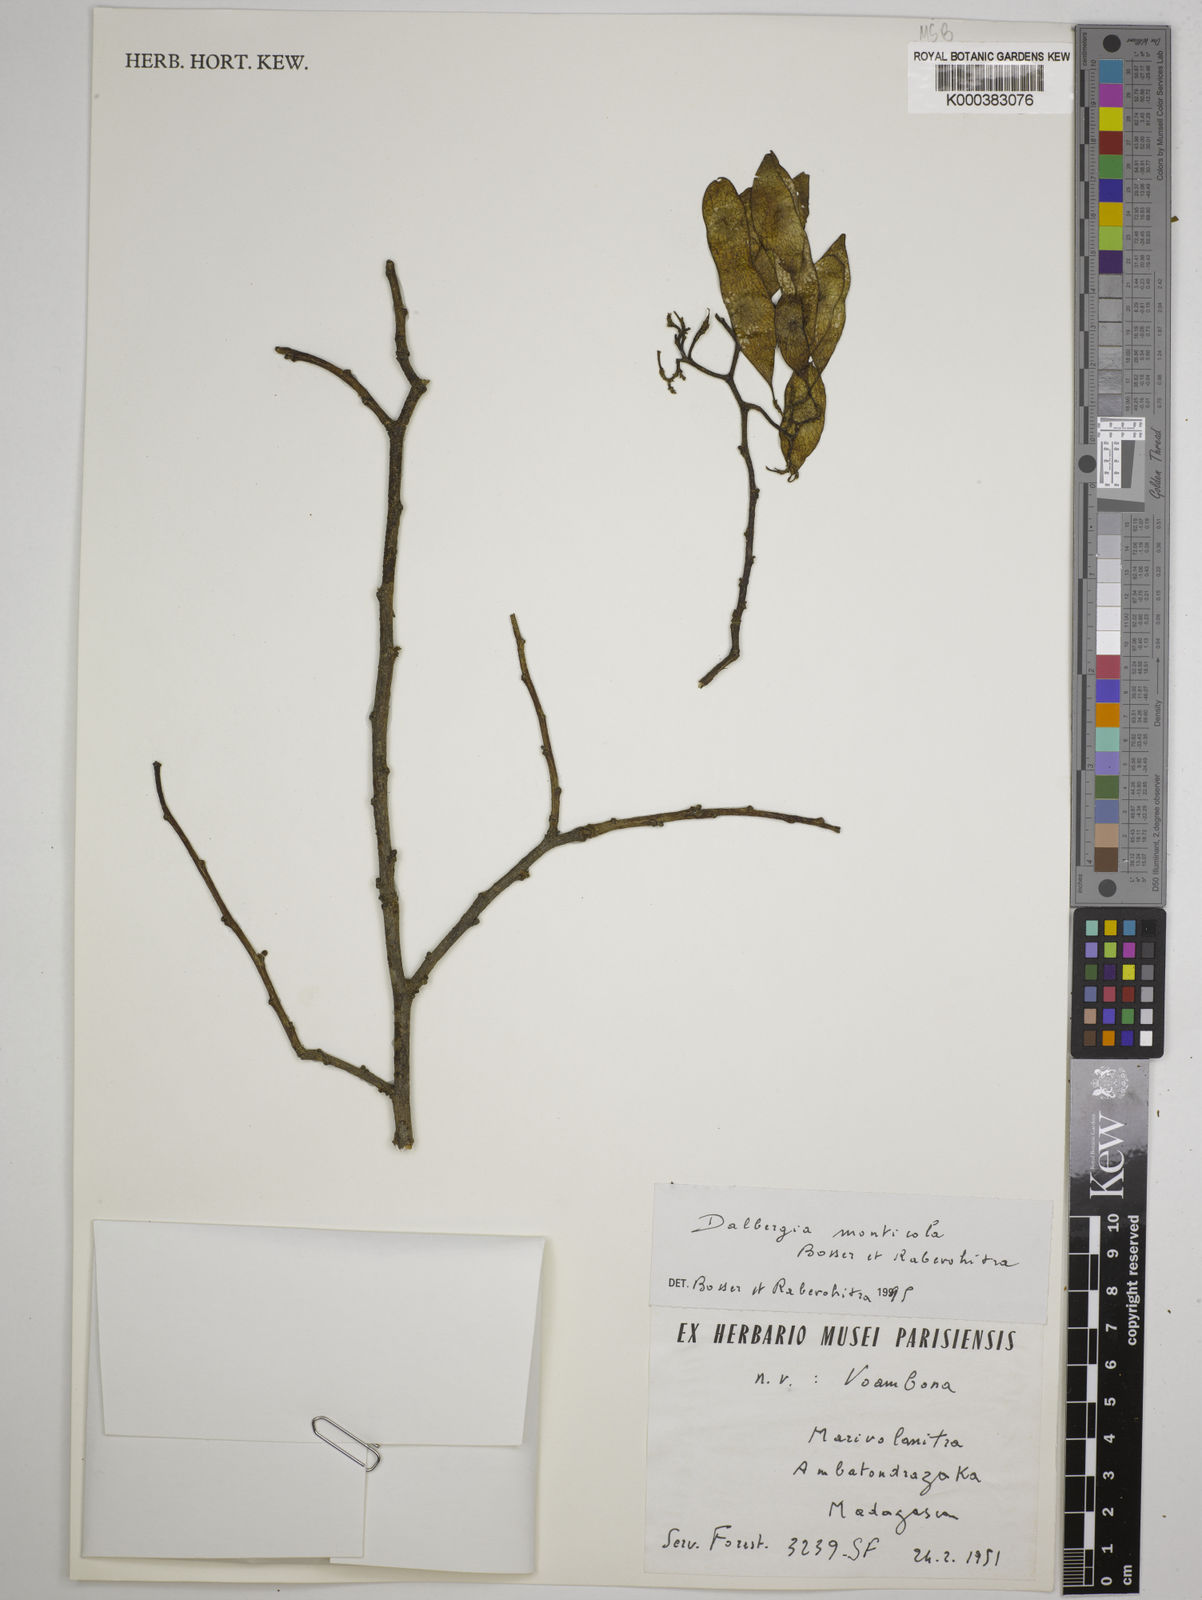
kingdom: Plantae
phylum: Tracheophyta
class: Magnoliopsida
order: Fabales
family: Fabaceae
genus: Dalbergia
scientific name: Dalbergia monticola
